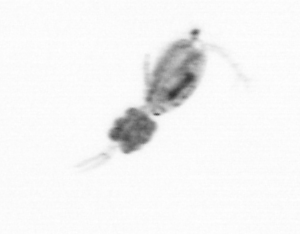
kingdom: Animalia
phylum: Arthropoda
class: Copepoda
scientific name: Copepoda
